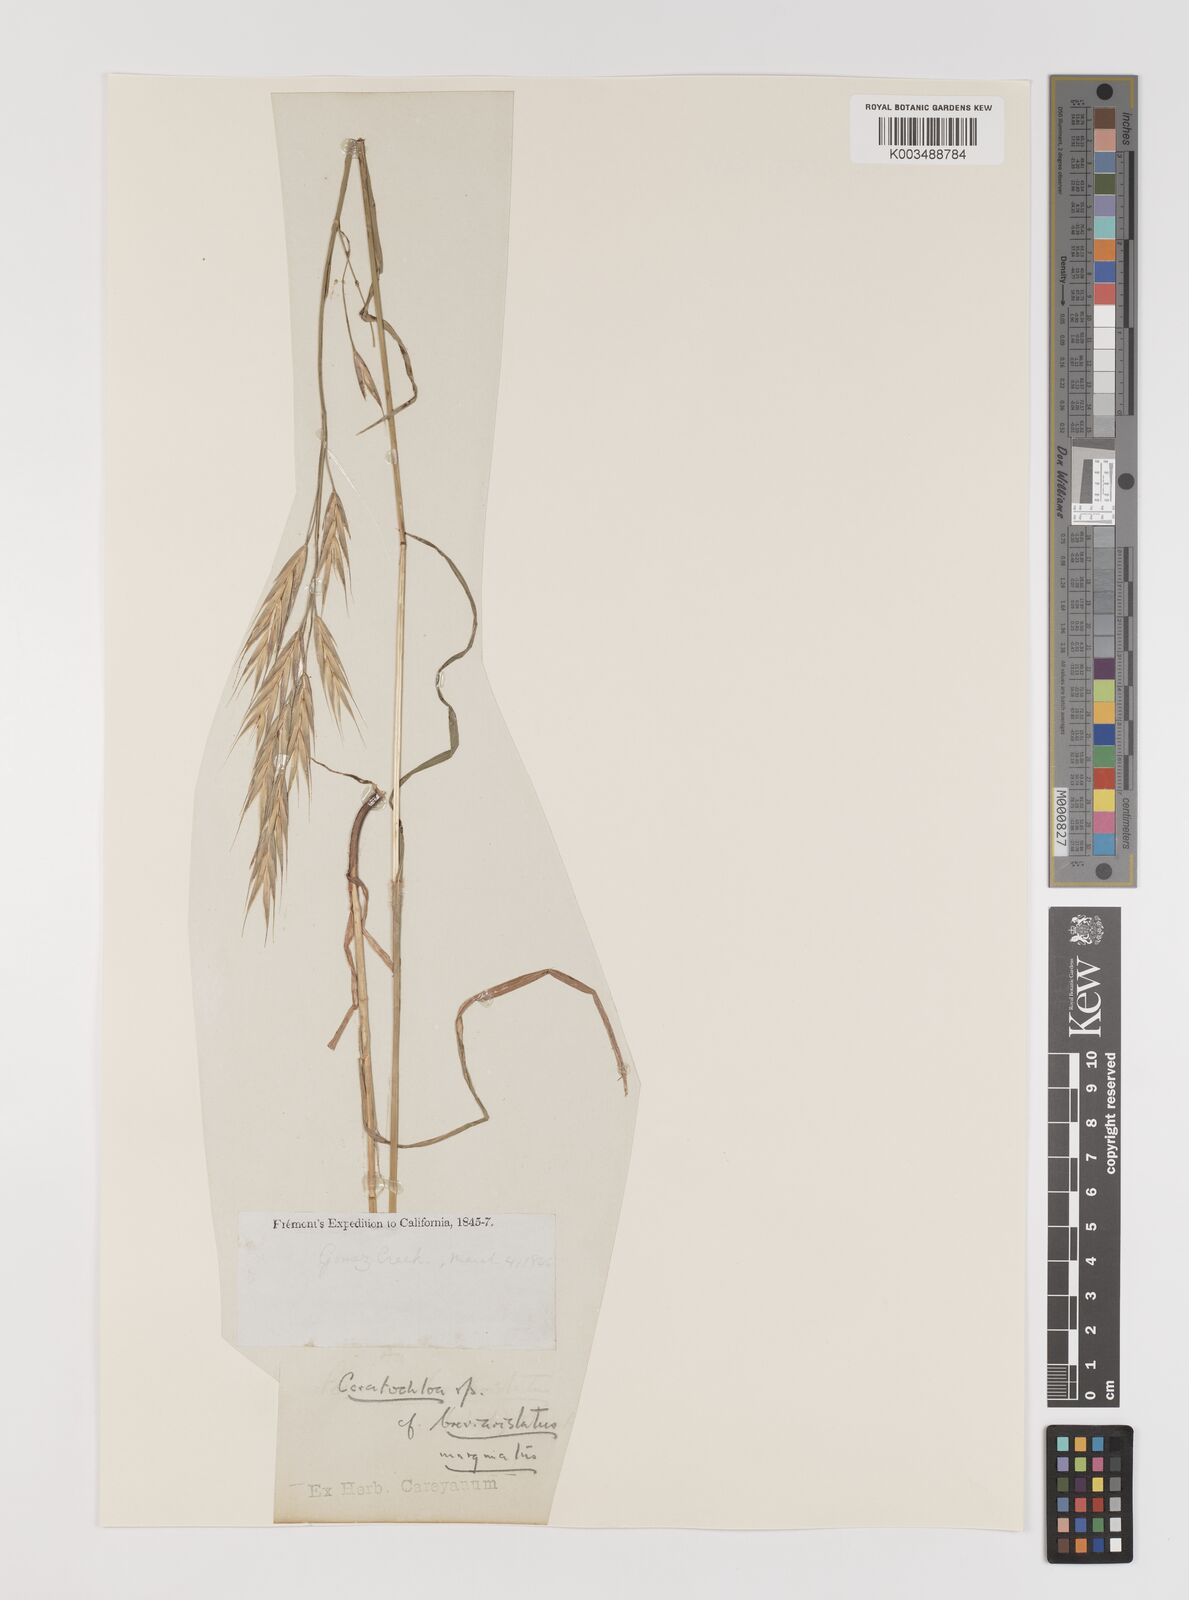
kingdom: Plantae
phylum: Tracheophyta
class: Liliopsida
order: Poales
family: Poaceae
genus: Bromus
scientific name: Bromus
